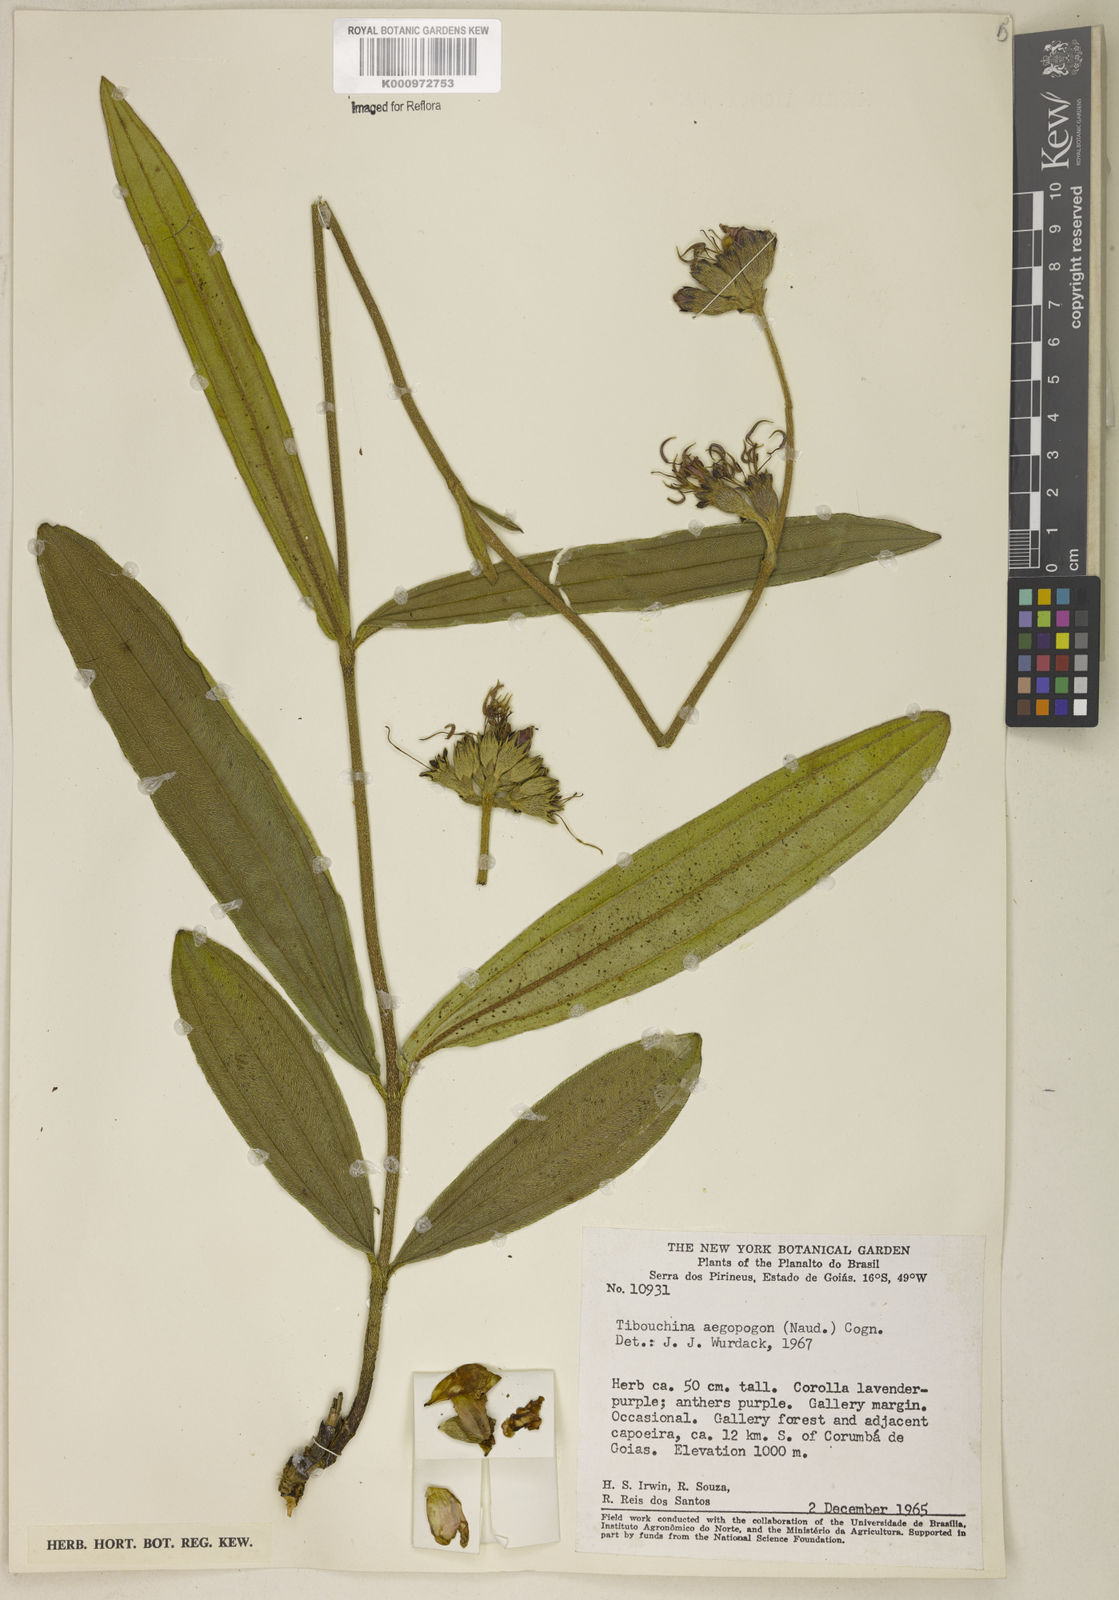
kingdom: Plantae
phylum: Tracheophyta
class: Magnoliopsida
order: Myrtales
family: Melastomataceae
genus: Pleroma
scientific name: Pleroma aegopogon
